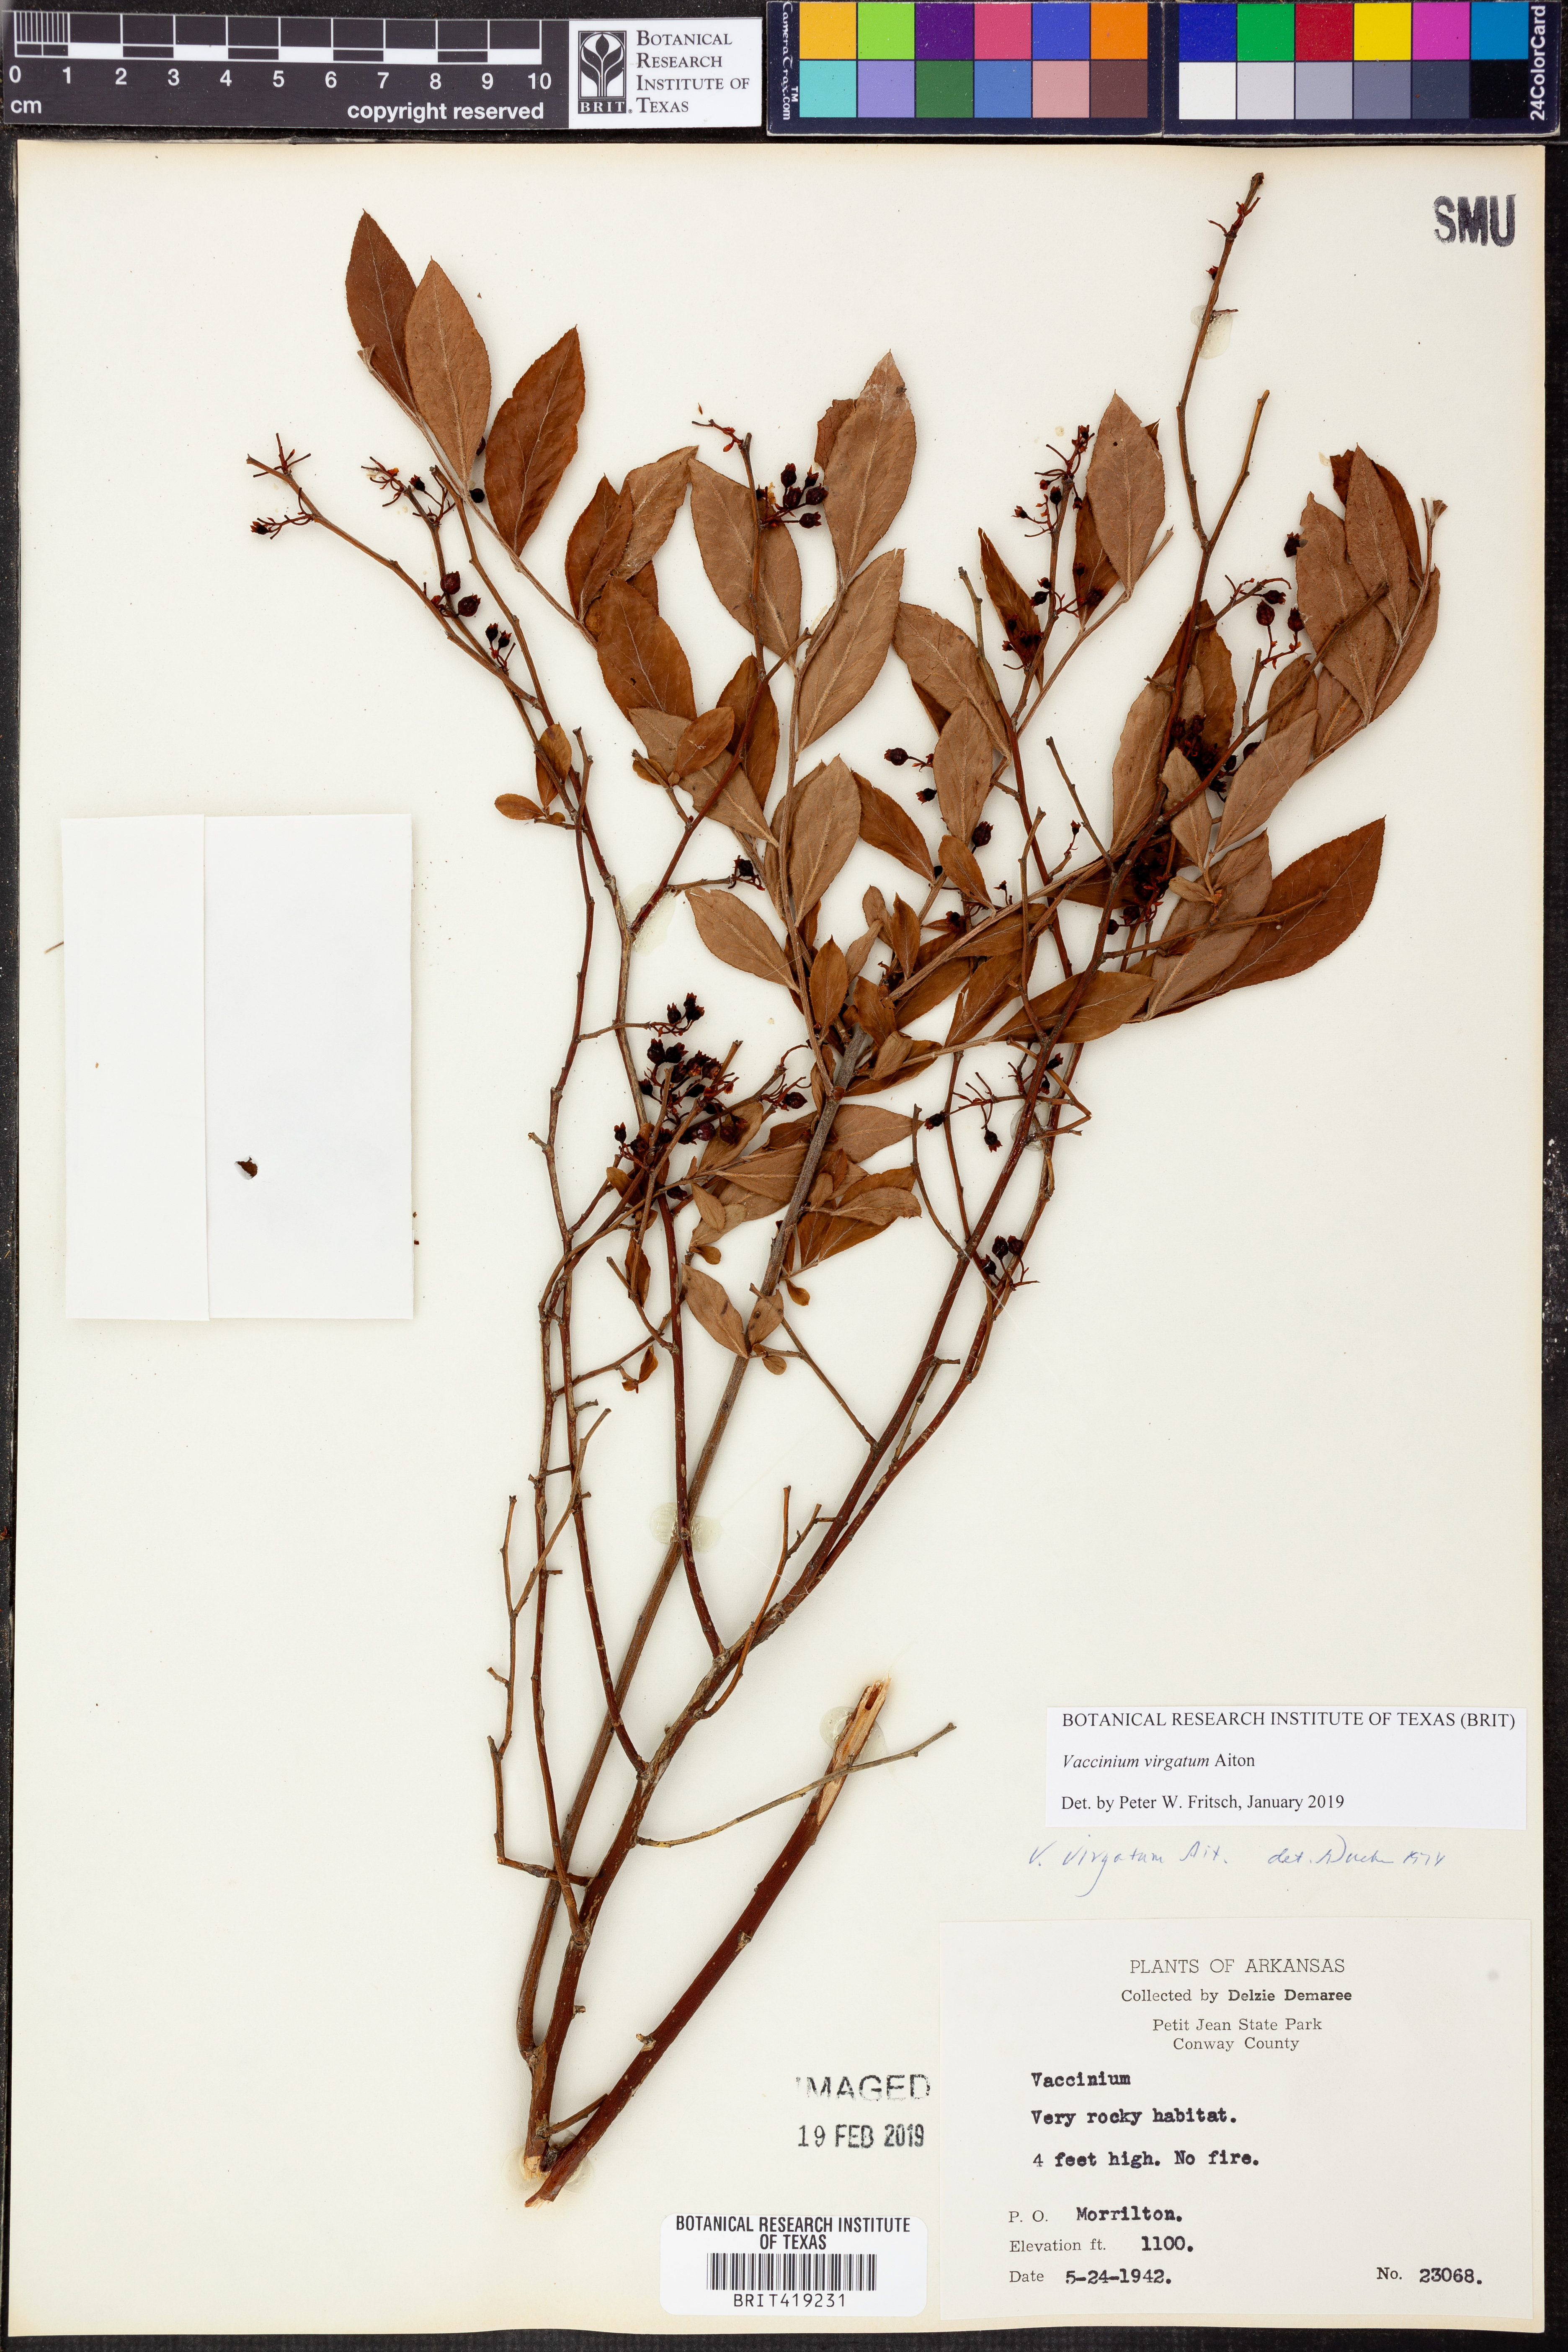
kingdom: Plantae
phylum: Tracheophyta
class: Magnoliopsida
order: Ericales
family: Ericaceae
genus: Vaccinium
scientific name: Vaccinium corymbosum
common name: Blueberry
